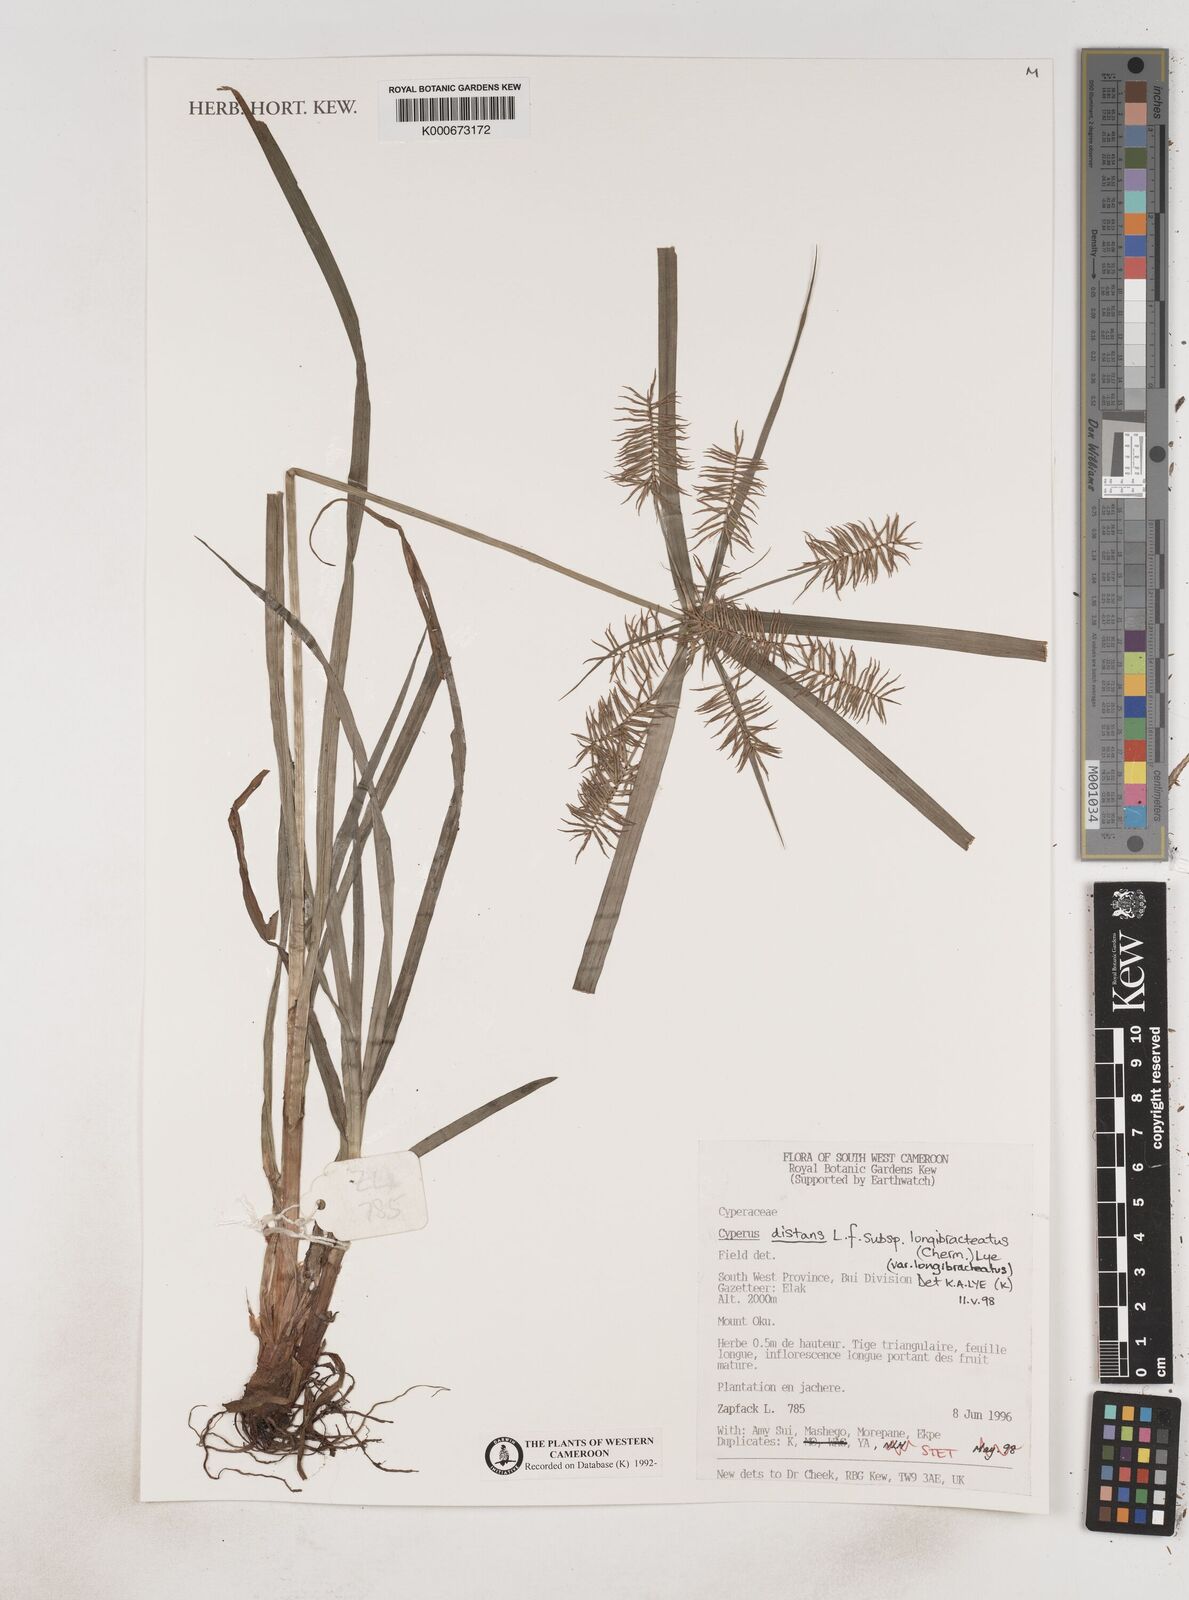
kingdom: Plantae
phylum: Tracheophyta
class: Liliopsida
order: Poales
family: Cyperaceae
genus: Cyperus
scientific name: Cyperus distans
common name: Slender cyperus
